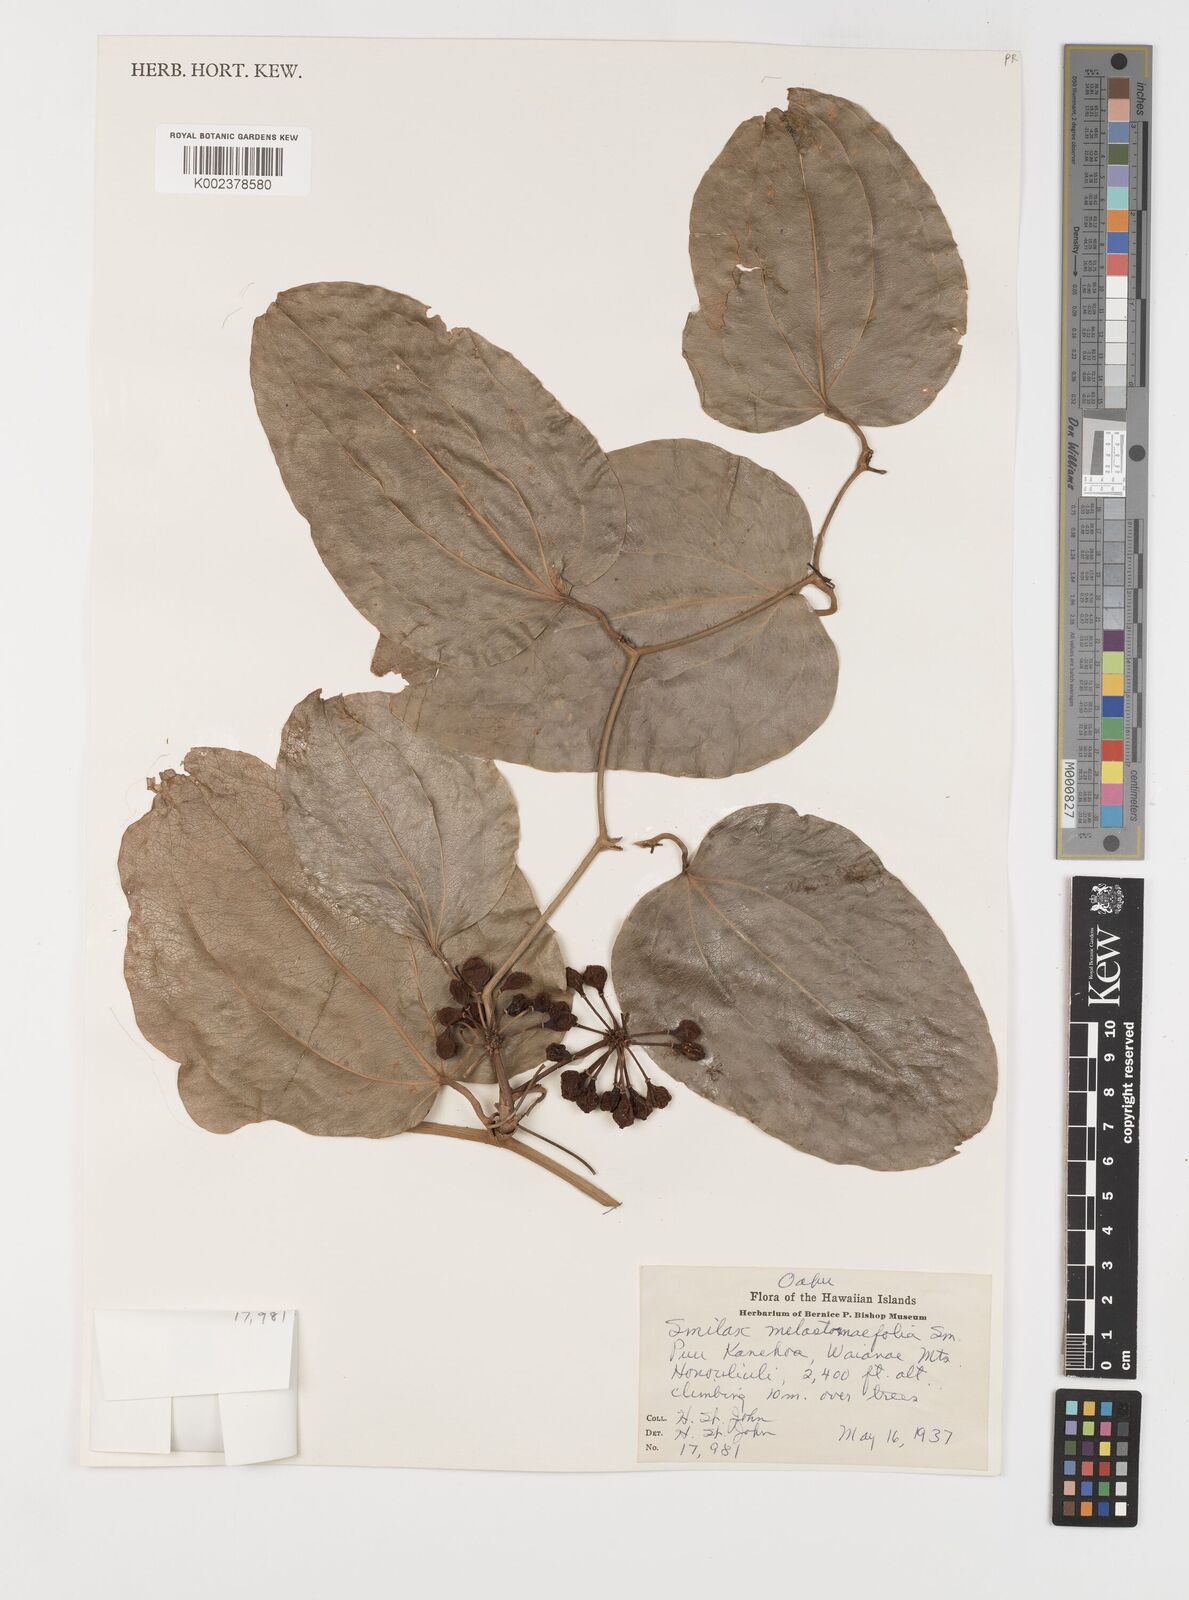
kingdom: Plantae
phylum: Tracheophyta
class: Liliopsida
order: Liliales
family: Smilacaceae
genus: Smilax
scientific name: Smilax melastomifolia
